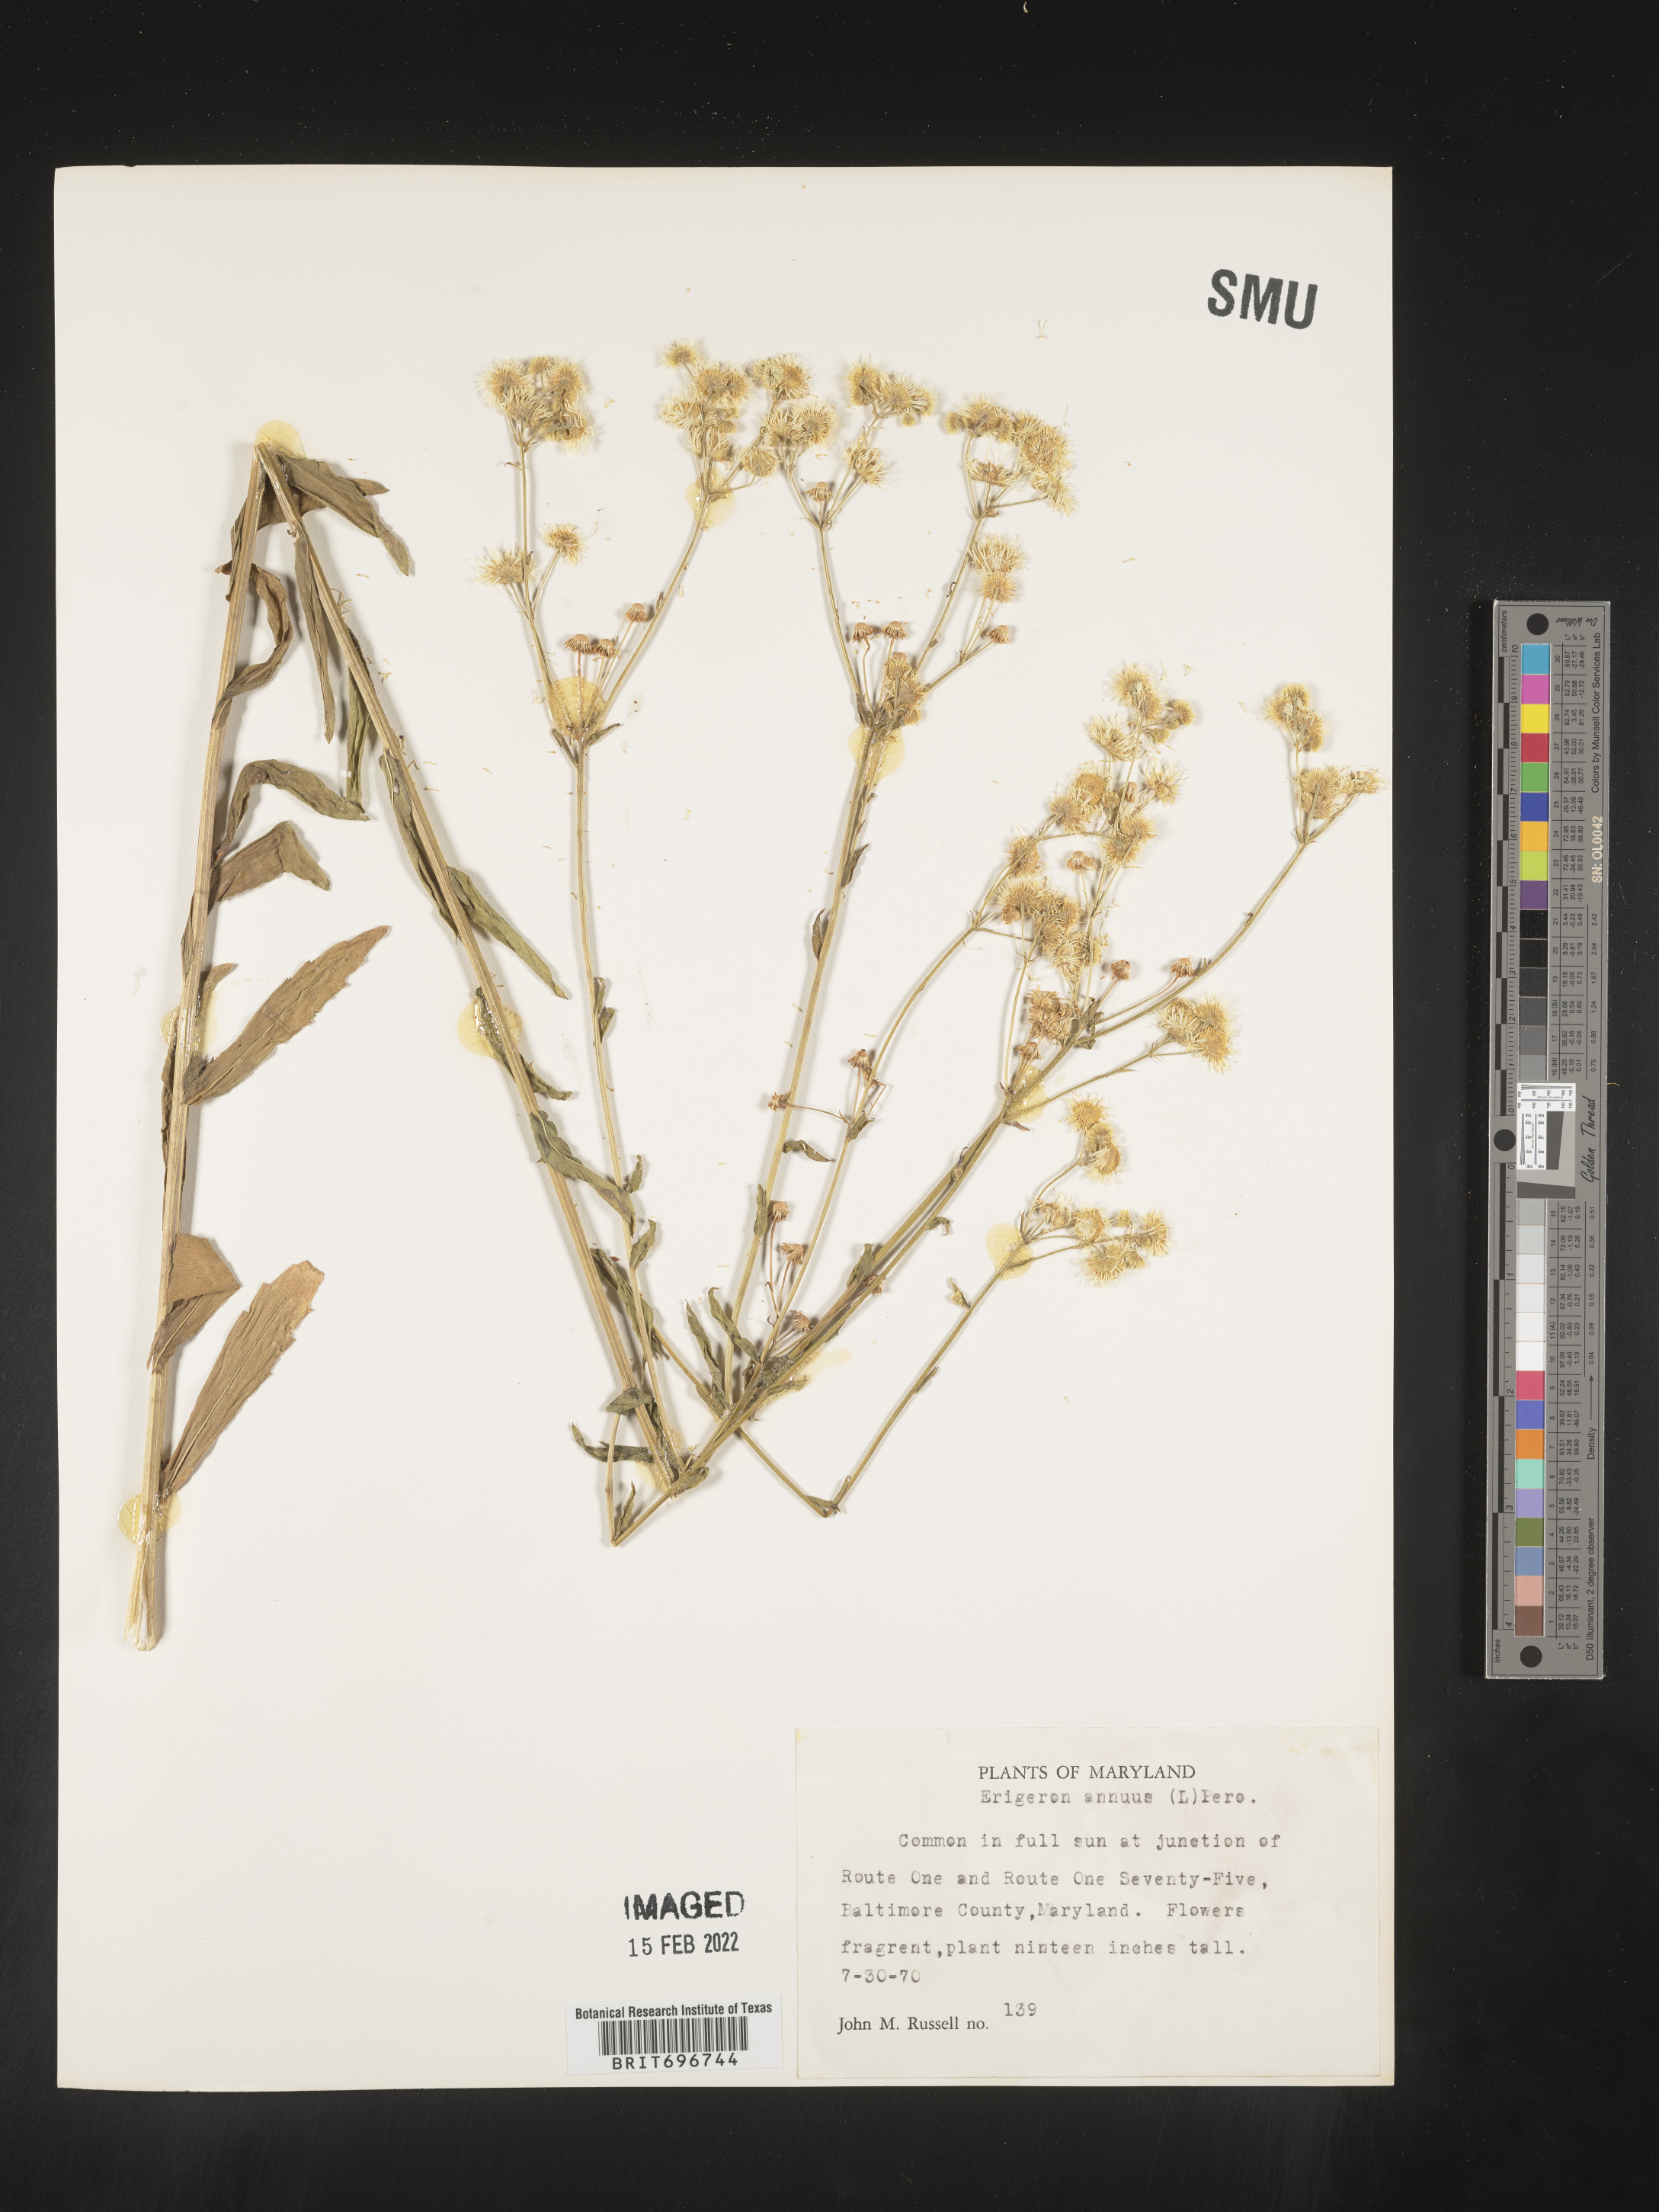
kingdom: Plantae
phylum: Tracheophyta
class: Magnoliopsida
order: Asterales
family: Asteraceae
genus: Erigeron
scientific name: Erigeron annuus
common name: Tall fleabane
